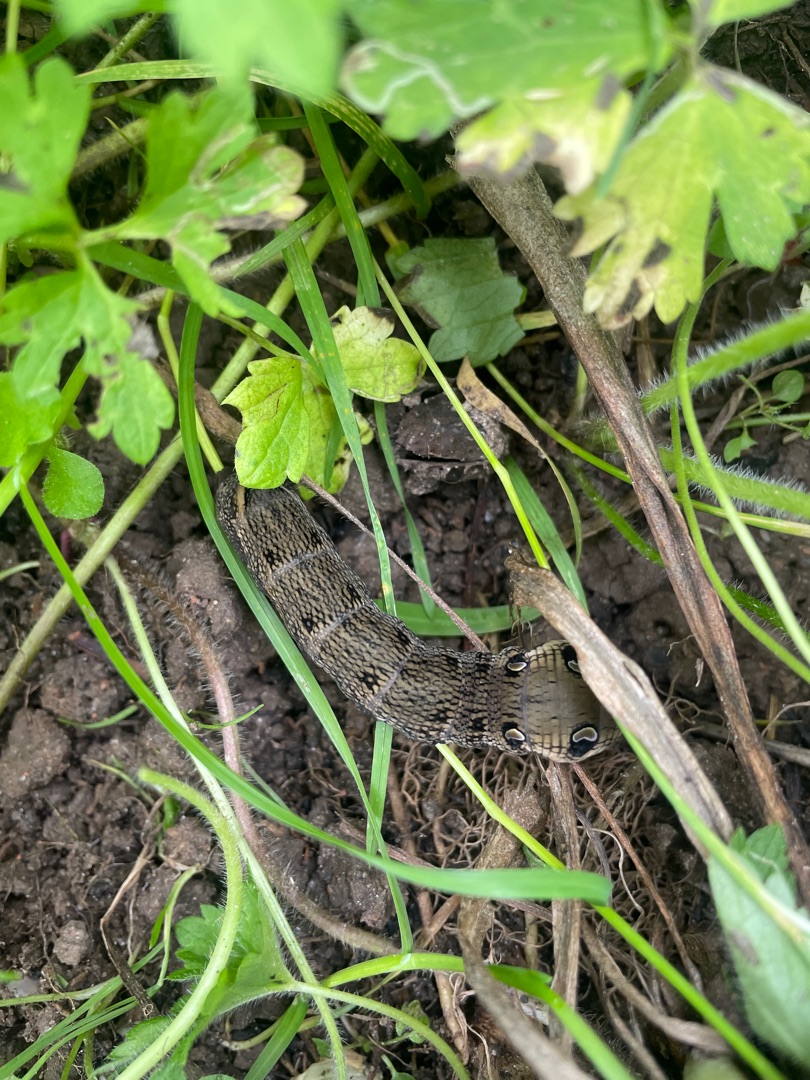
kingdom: Animalia
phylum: Arthropoda
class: Insecta
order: Lepidoptera
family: Sphingidae
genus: Deilephila
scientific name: Deilephila elpenor
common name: Dueurtsværmer
